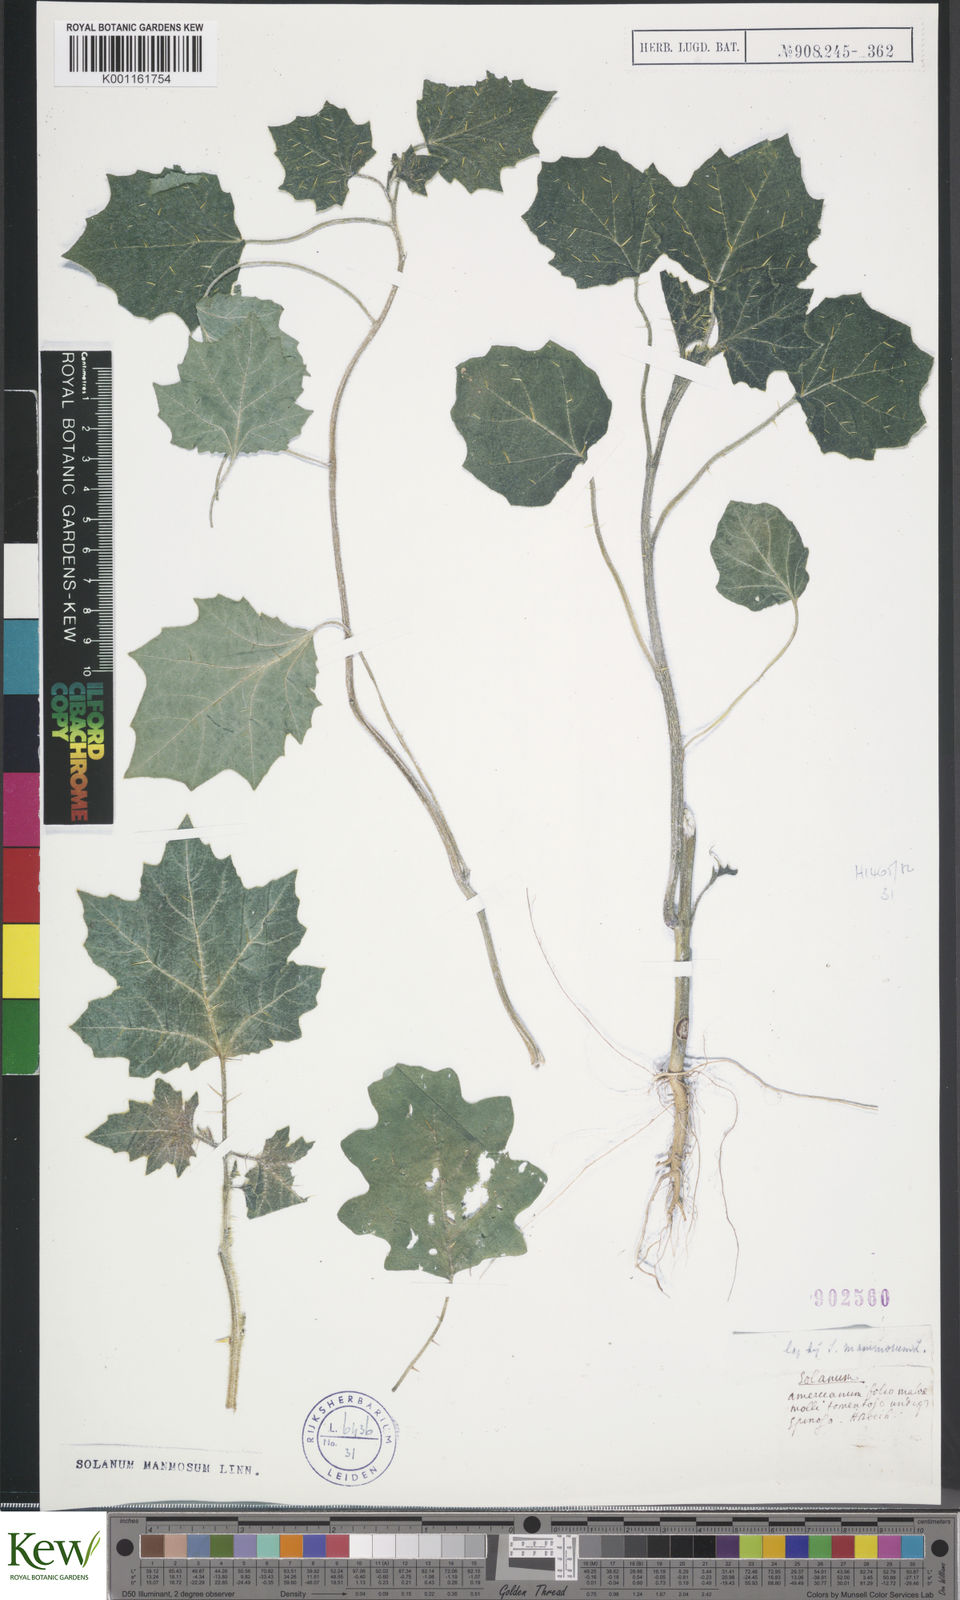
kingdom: Plantae
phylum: Tracheophyta
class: Magnoliopsida
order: Solanales
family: Solanaceae
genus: Solanum
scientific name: Solanum mammosum
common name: Nipple fruit
